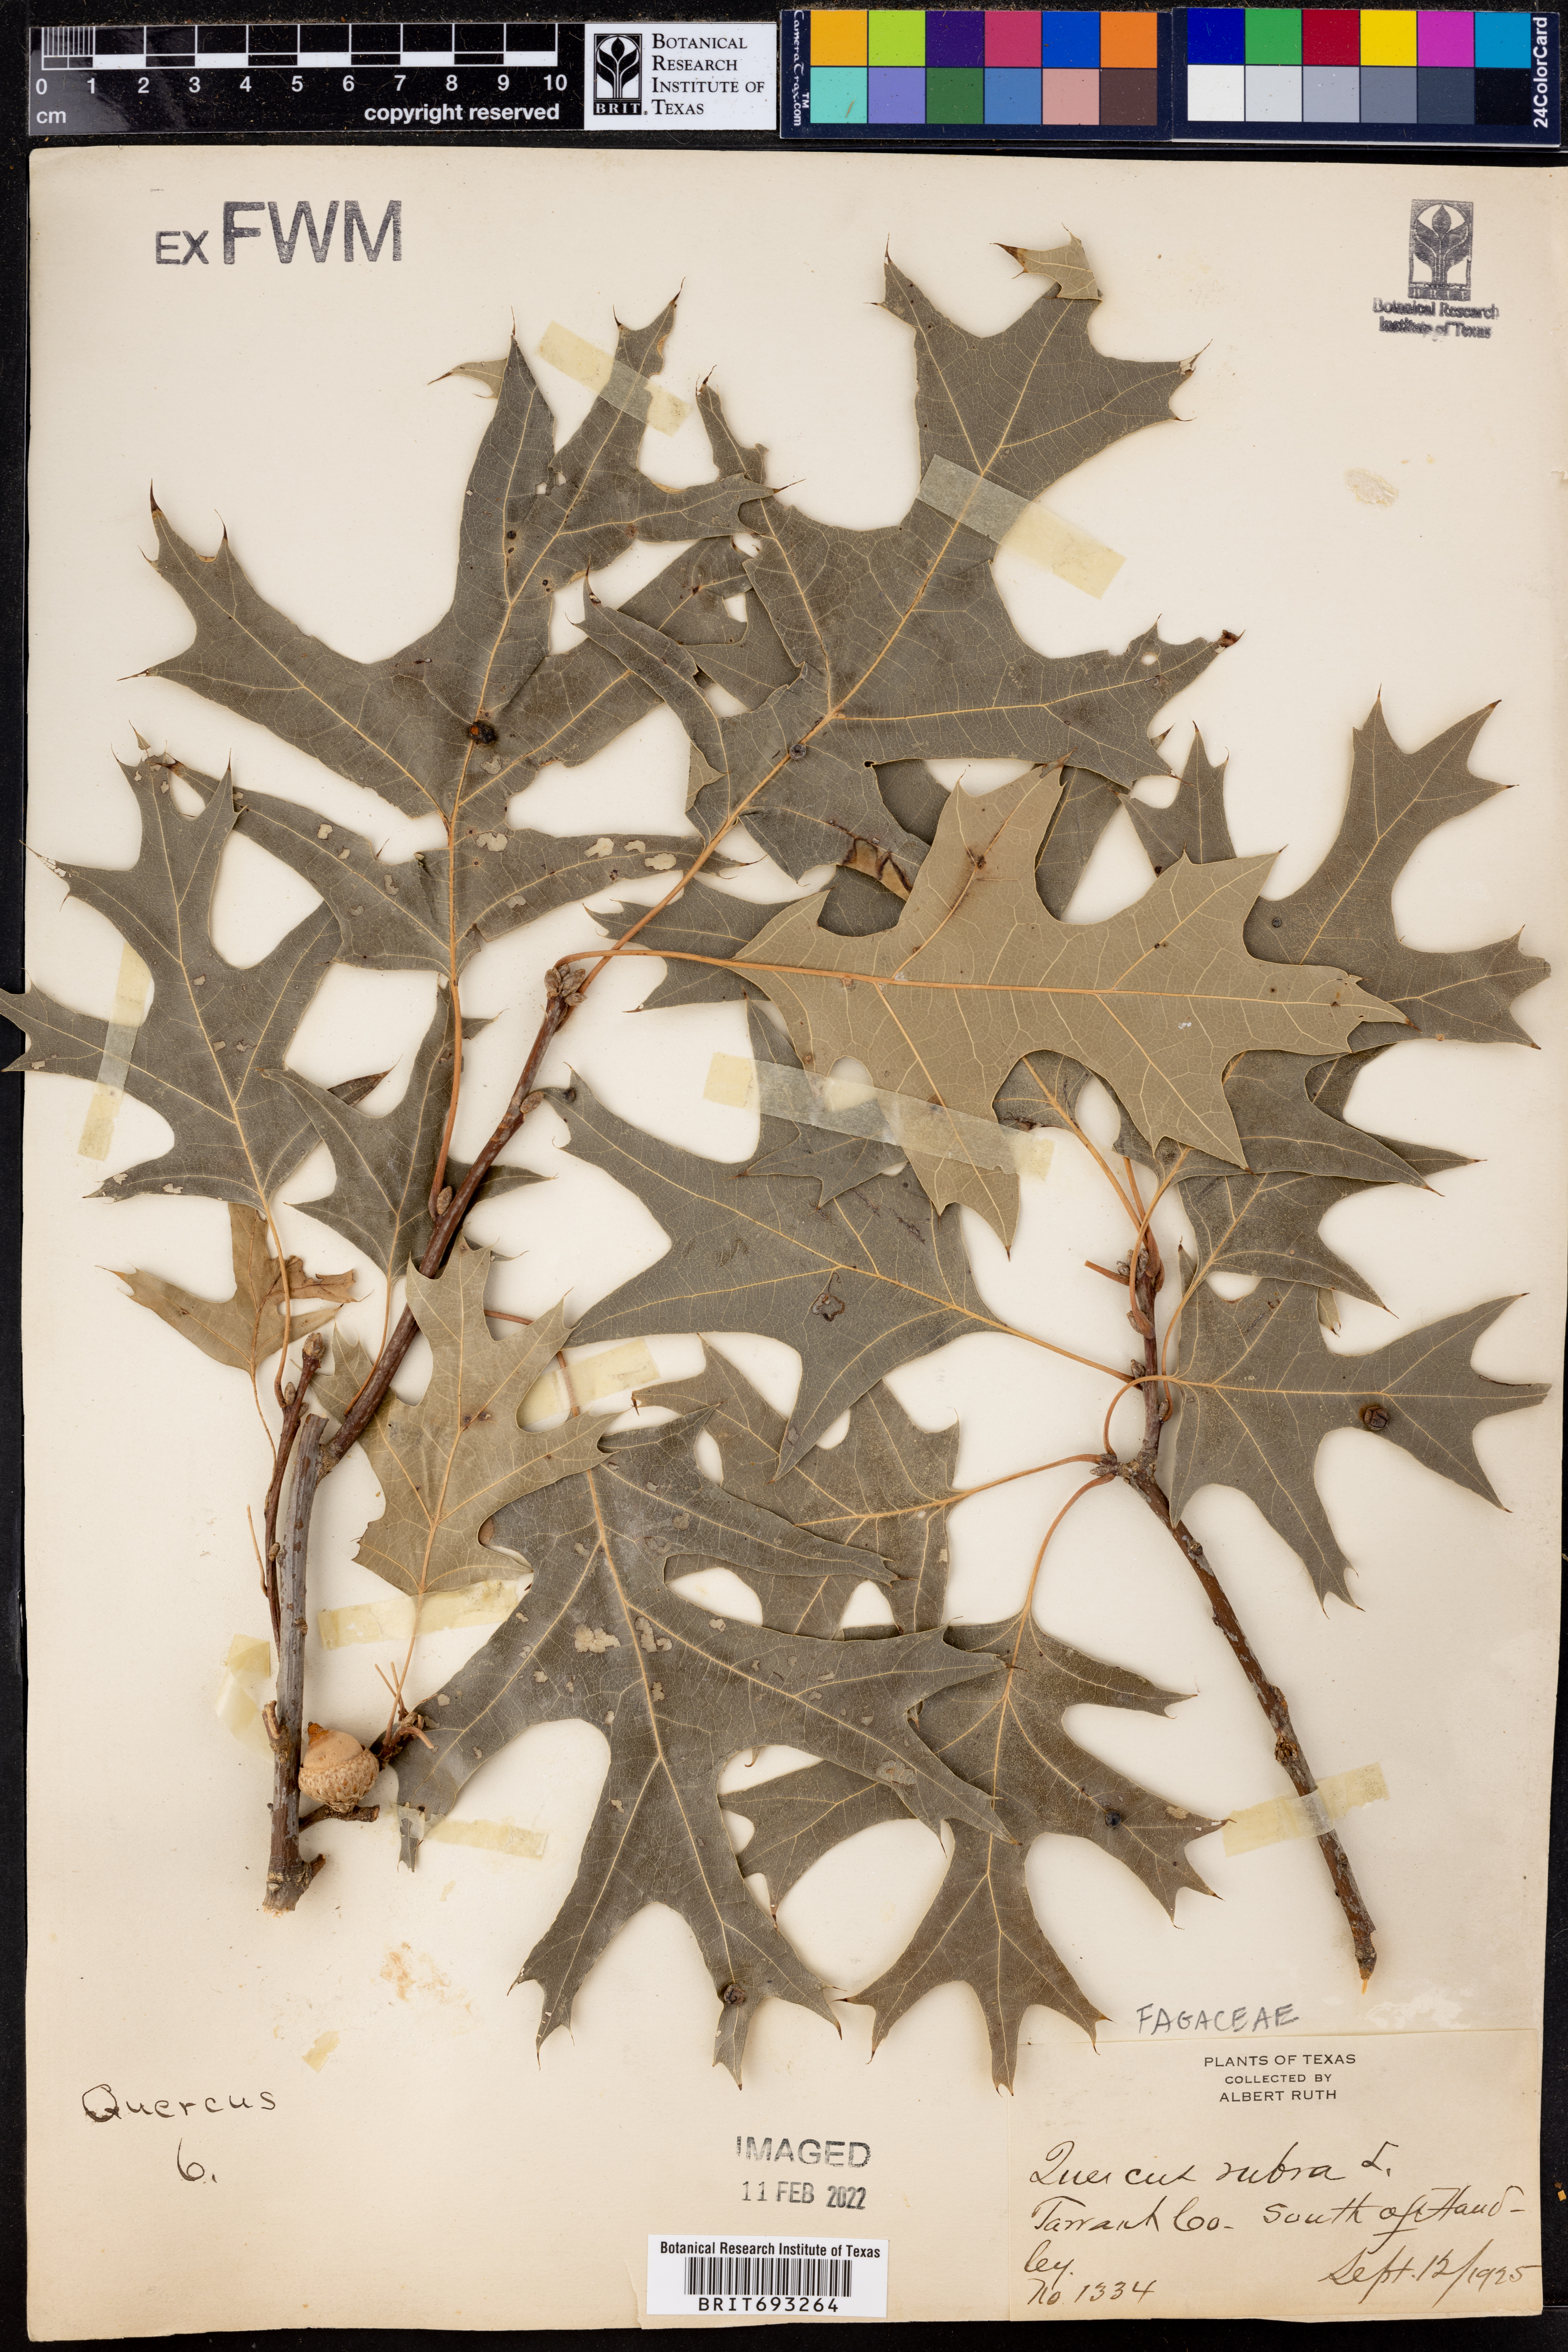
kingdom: Plantae
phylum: Tracheophyta
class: Magnoliopsida
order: Fagales
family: Fagaceae
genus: Quercus
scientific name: Quercus rubra
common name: Red oak
